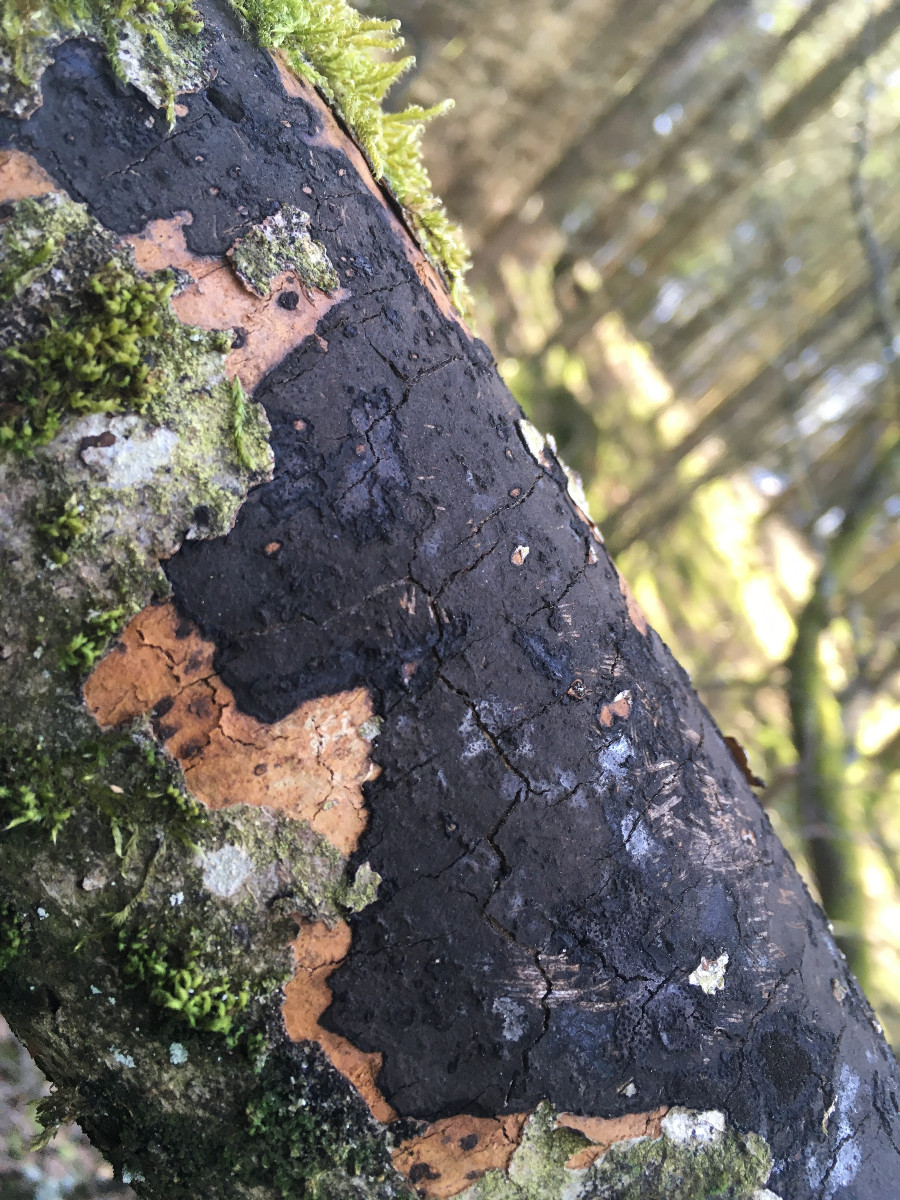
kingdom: Fungi
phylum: Ascomycota
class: Sordariomycetes
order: Xylariales
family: Diatrypaceae
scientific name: Diatrypaceae
